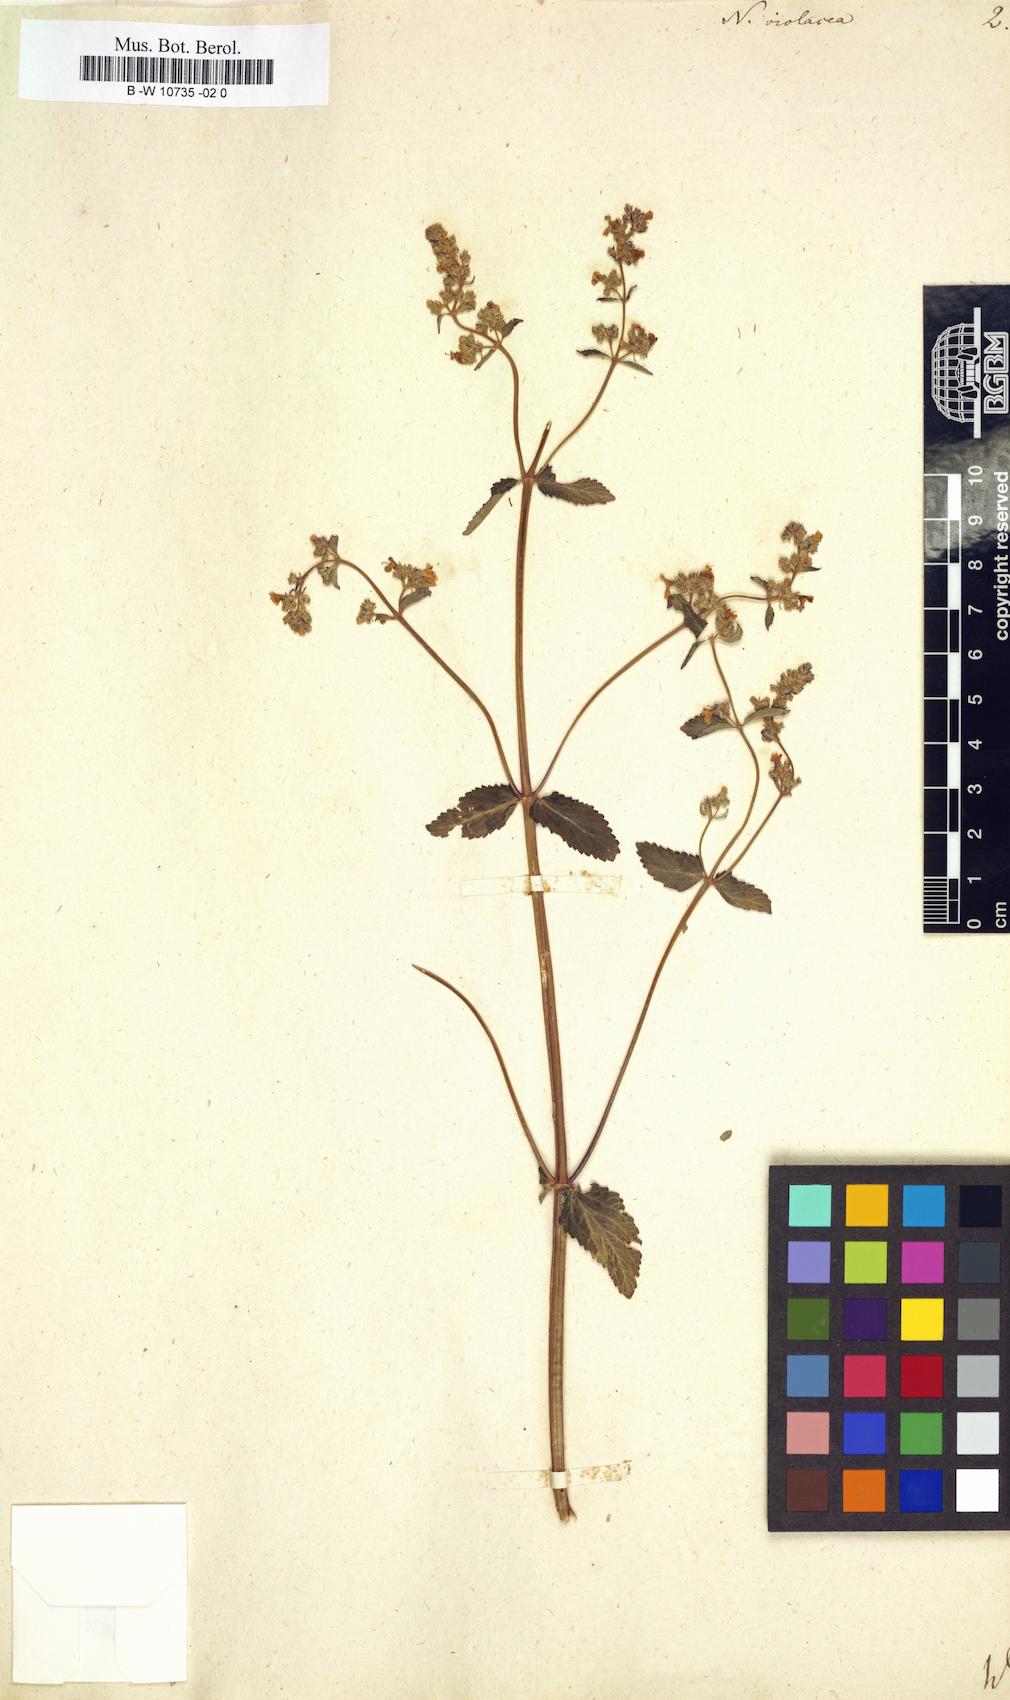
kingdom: Plantae
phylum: Tracheophyta
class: Magnoliopsida
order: Lamiales
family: Lamiaceae
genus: Nepeta
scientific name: Nepeta nuda
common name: Hairless catmint
